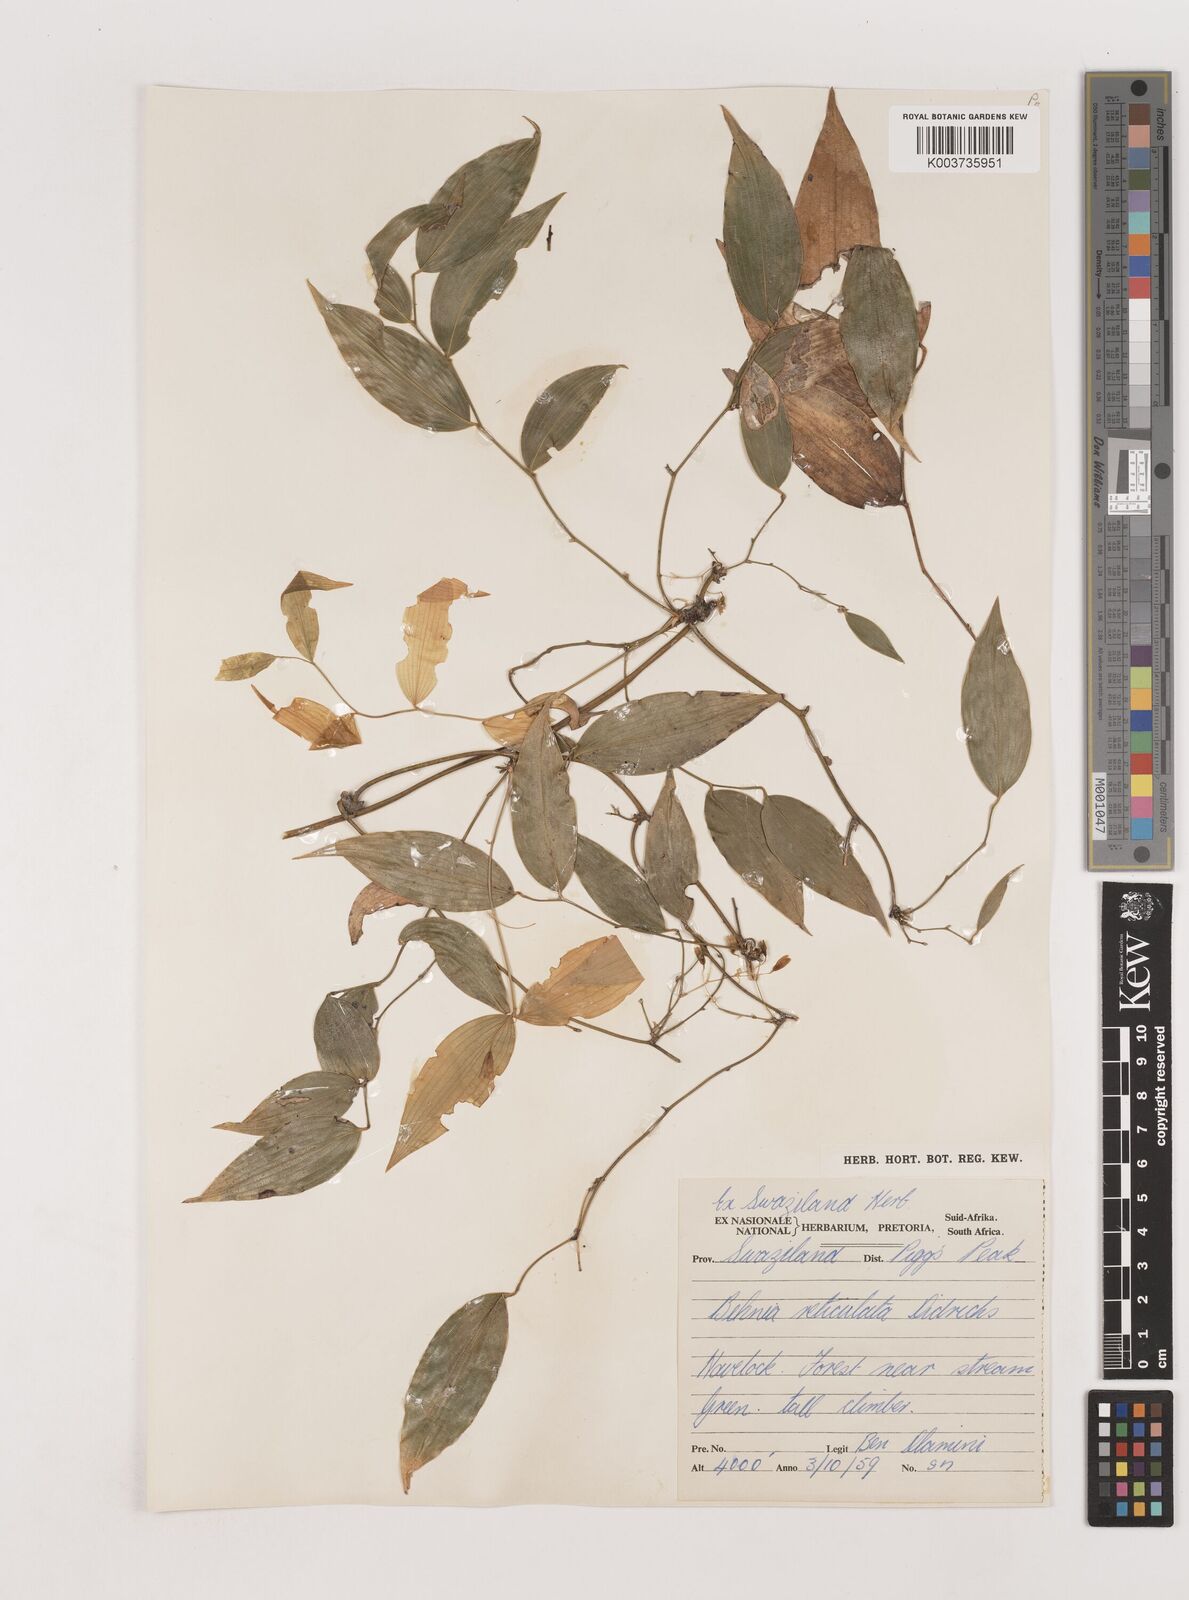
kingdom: Plantae
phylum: Tracheophyta
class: Liliopsida
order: Asparagales
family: Asparagaceae
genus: Behnia
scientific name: Behnia reticulata
